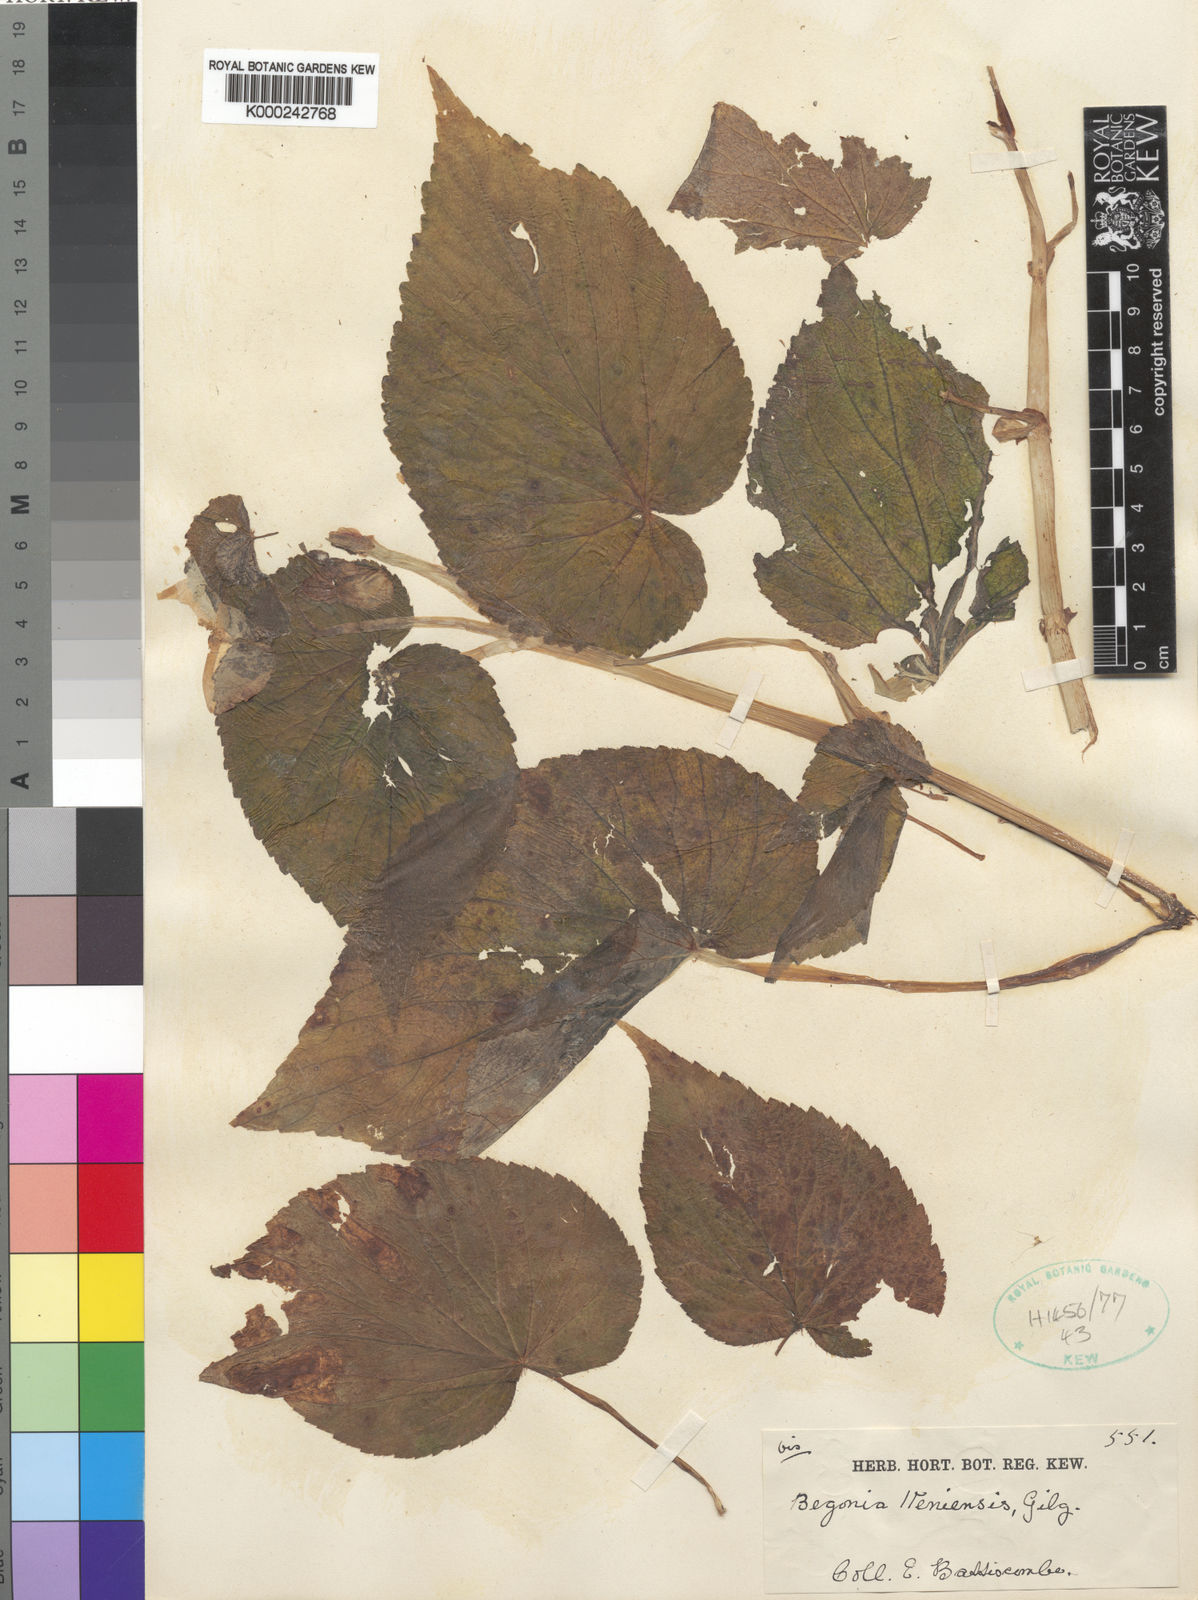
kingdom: Plantae
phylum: Tracheophyta
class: Magnoliopsida
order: Cucurbitales
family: Begoniaceae
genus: Begonia
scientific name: Begonia
